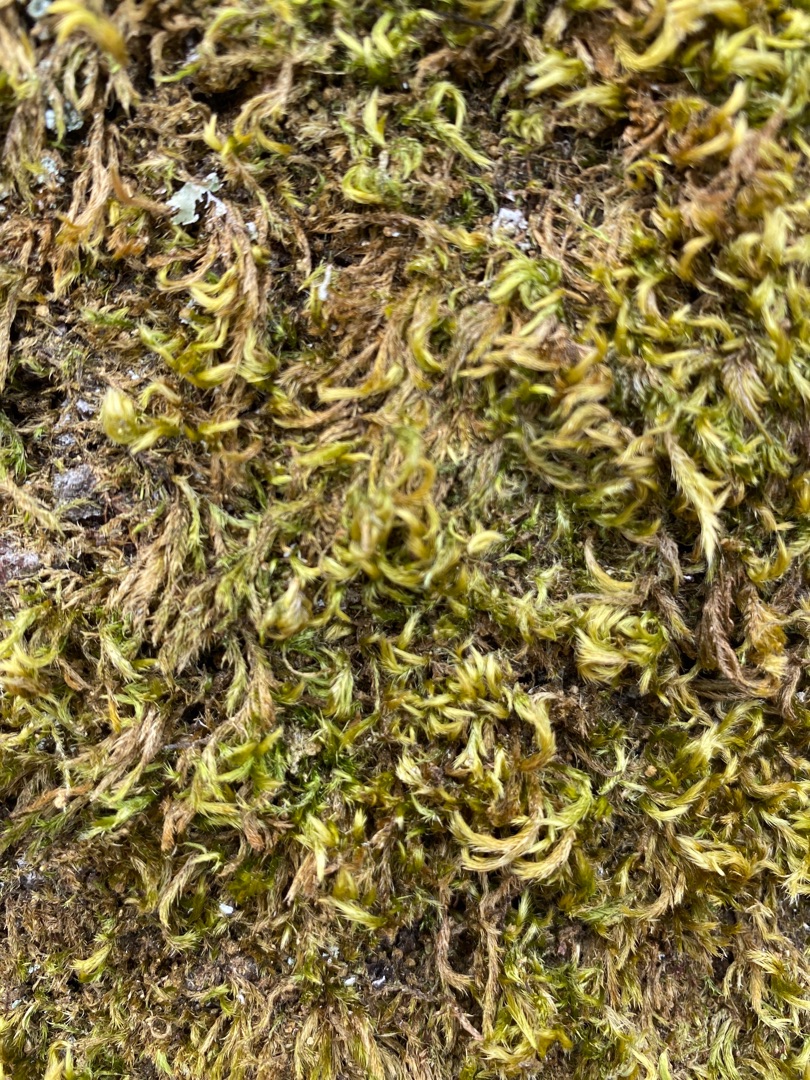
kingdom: Plantae
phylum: Bryophyta
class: Bryopsida
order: Hypnales
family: Brachytheciaceae
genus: Homalothecium
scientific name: Homalothecium sericeum
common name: Krybende silkemos
